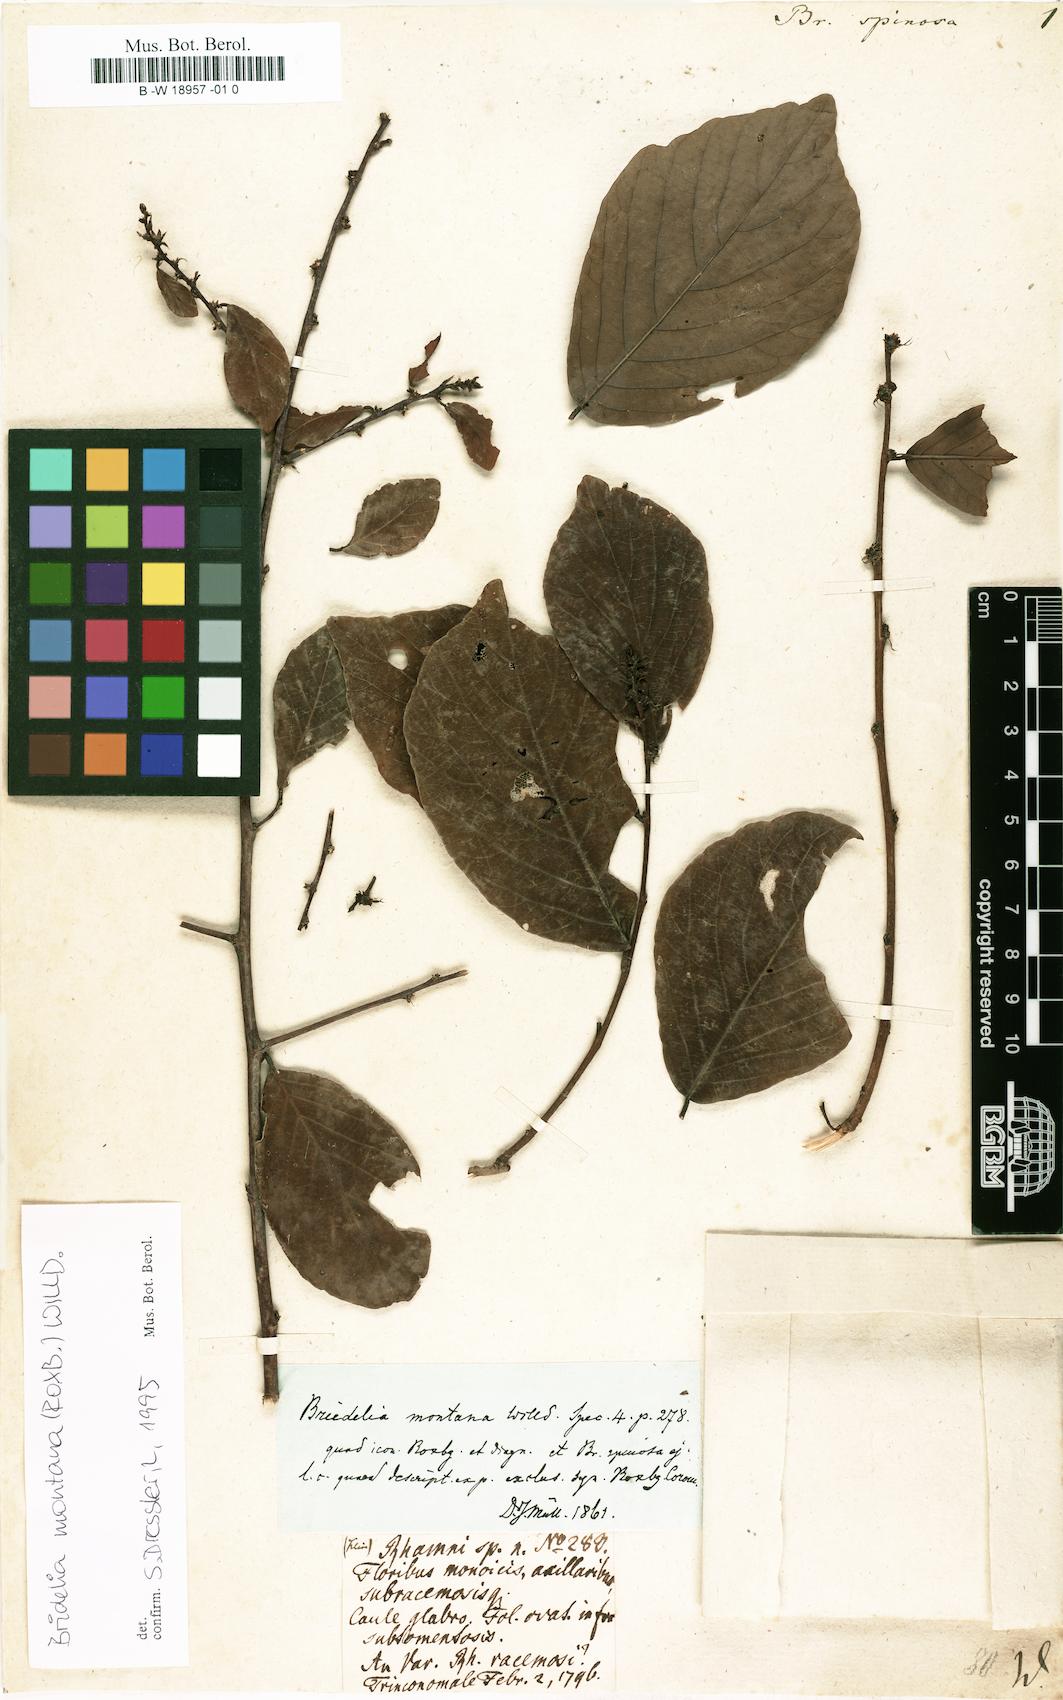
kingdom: Plantae
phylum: Tracheophyta
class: Magnoliopsida
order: Malpighiales
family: Euphorbiaceae
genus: Briedelia
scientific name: Briedelia
